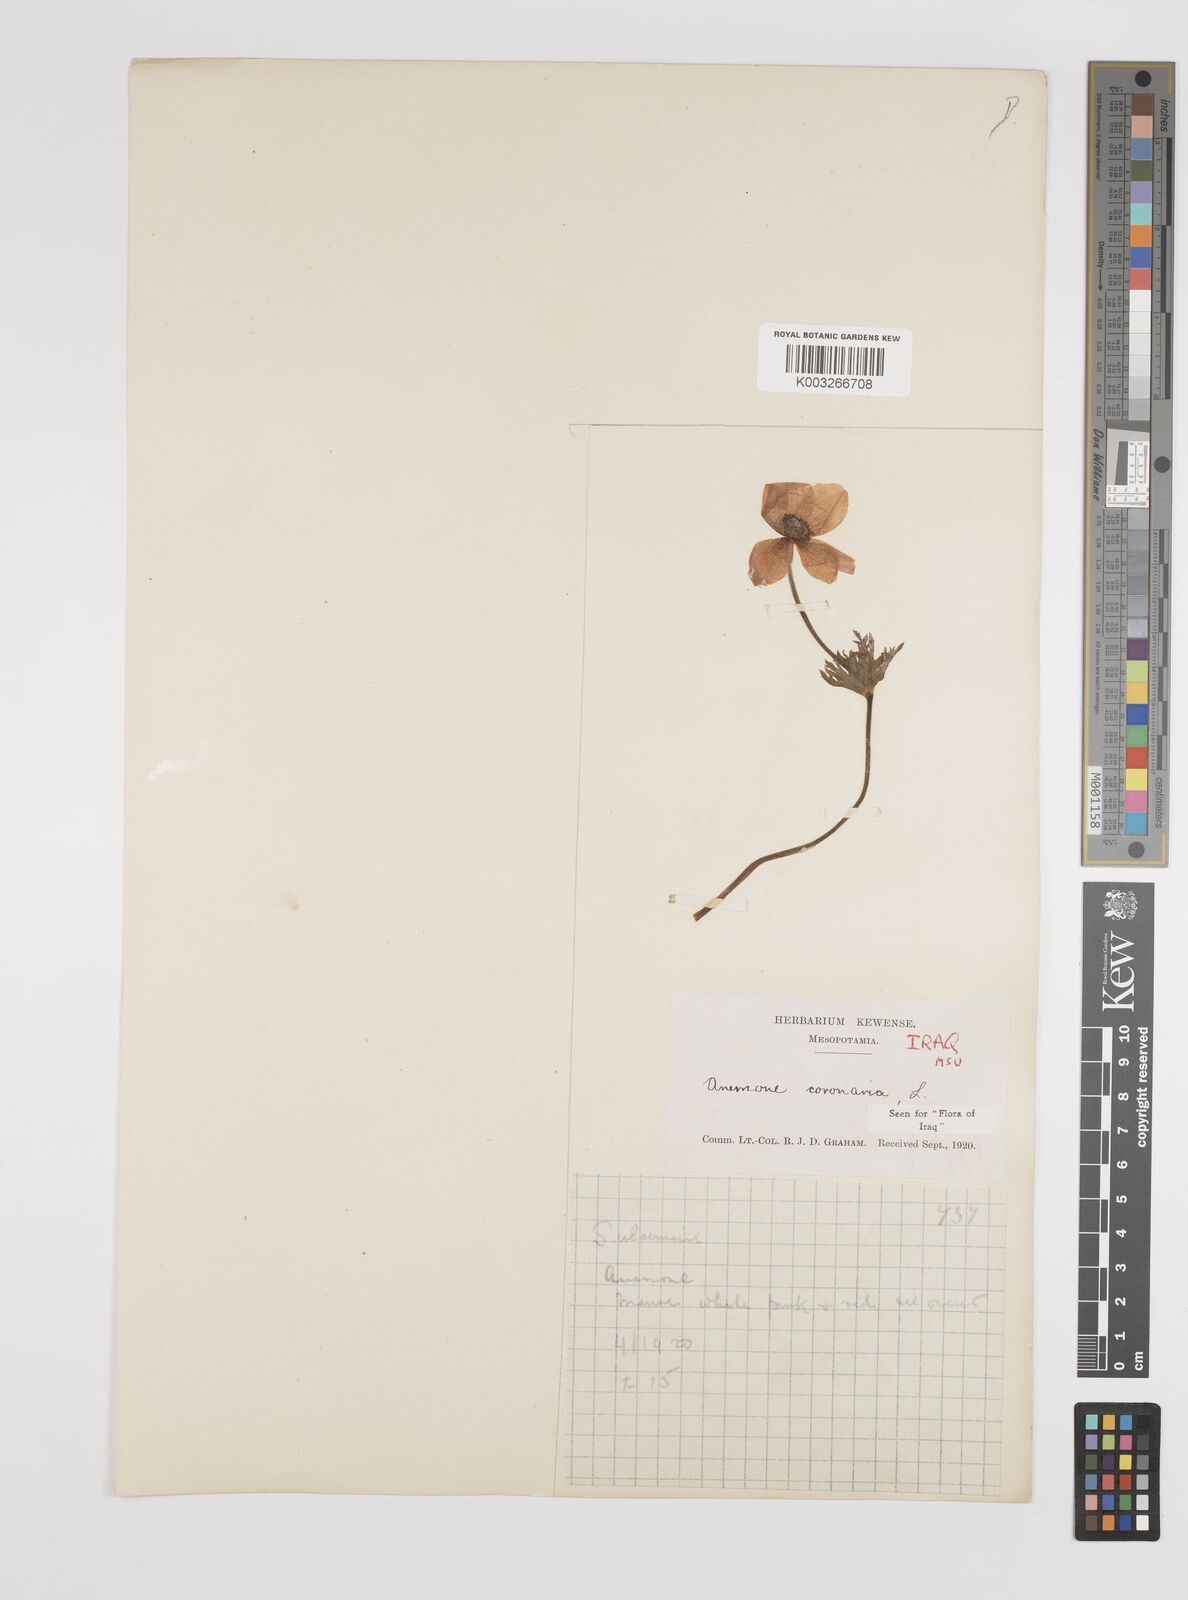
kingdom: Plantae
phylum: Tracheophyta
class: Magnoliopsida
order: Ranunculales
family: Ranunculaceae
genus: Anemone
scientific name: Anemone coronaria
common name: Poppy anemone
